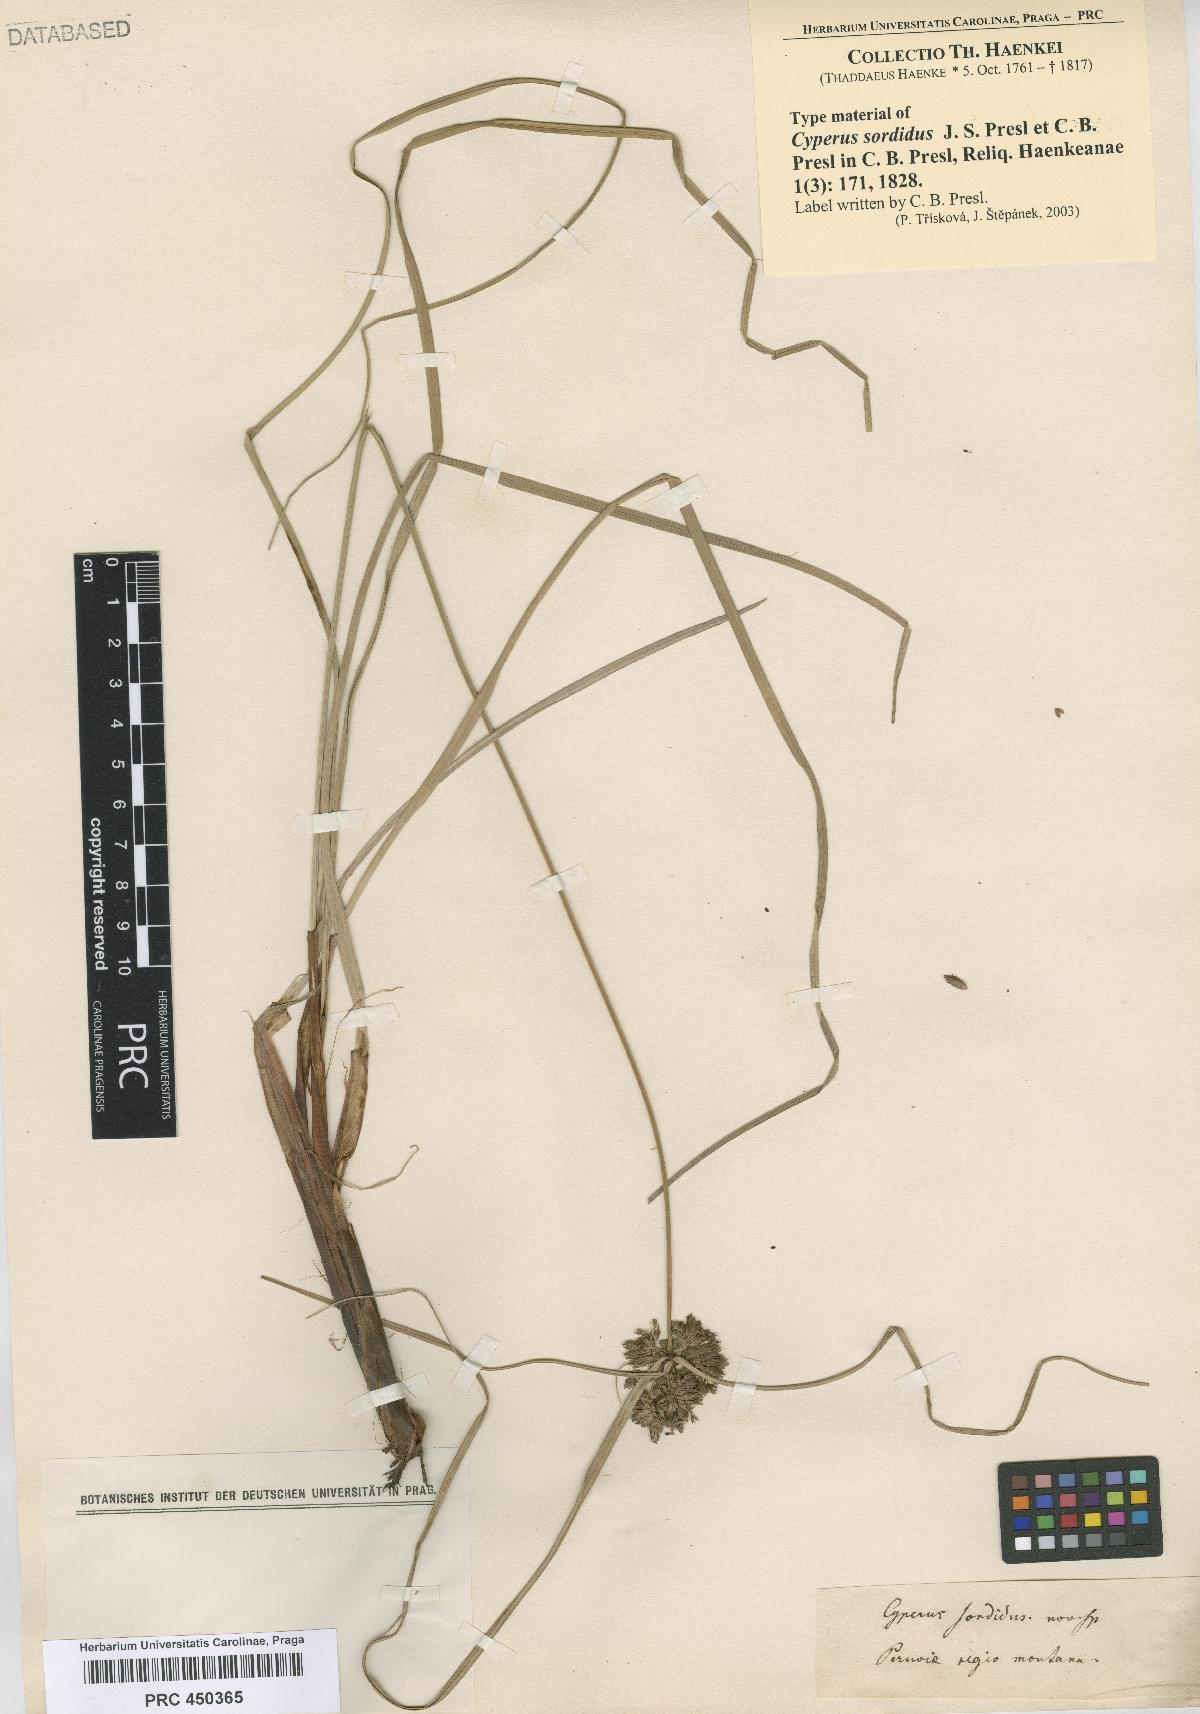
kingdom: Plantae
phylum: Tracheophyta
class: Liliopsida
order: Poales
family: Cyperaceae
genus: Cyperus
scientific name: Cyperus sordidus
